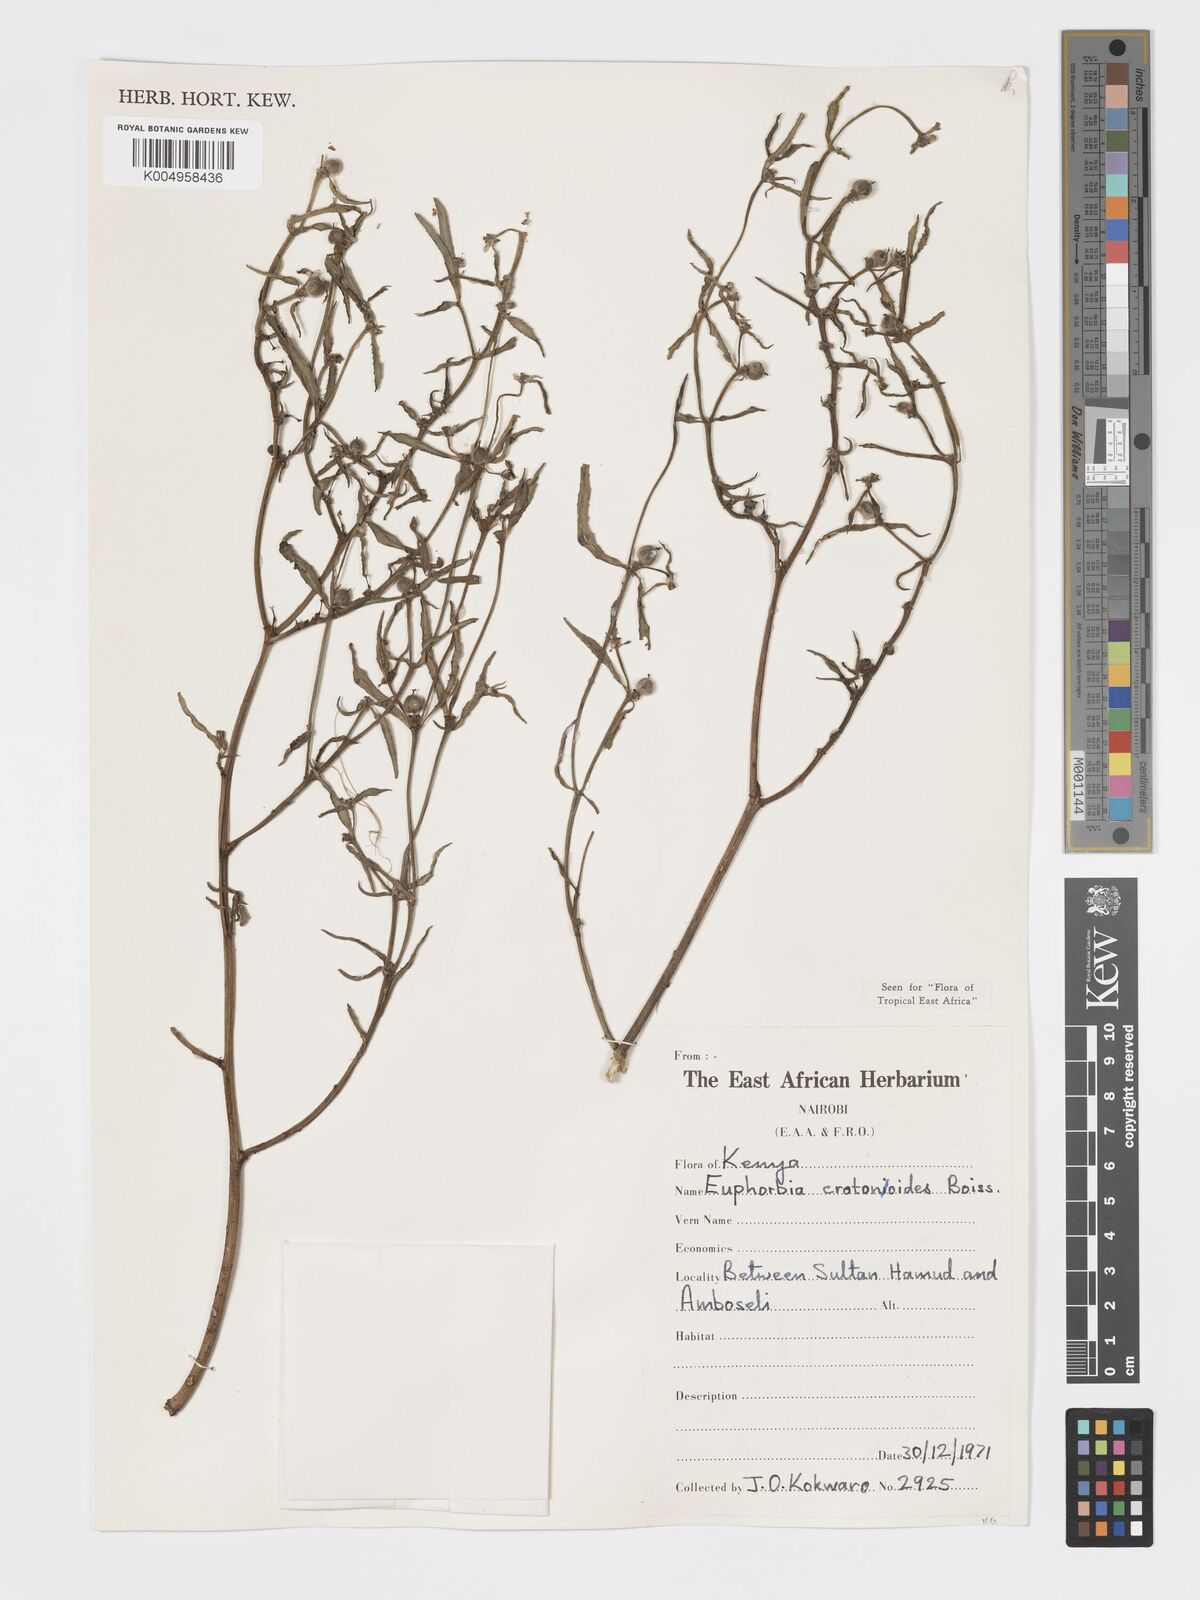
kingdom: Plantae
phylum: Tracheophyta
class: Magnoliopsida
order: Malpighiales
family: Euphorbiaceae
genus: Euphorbia
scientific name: Euphorbia crotonoides
